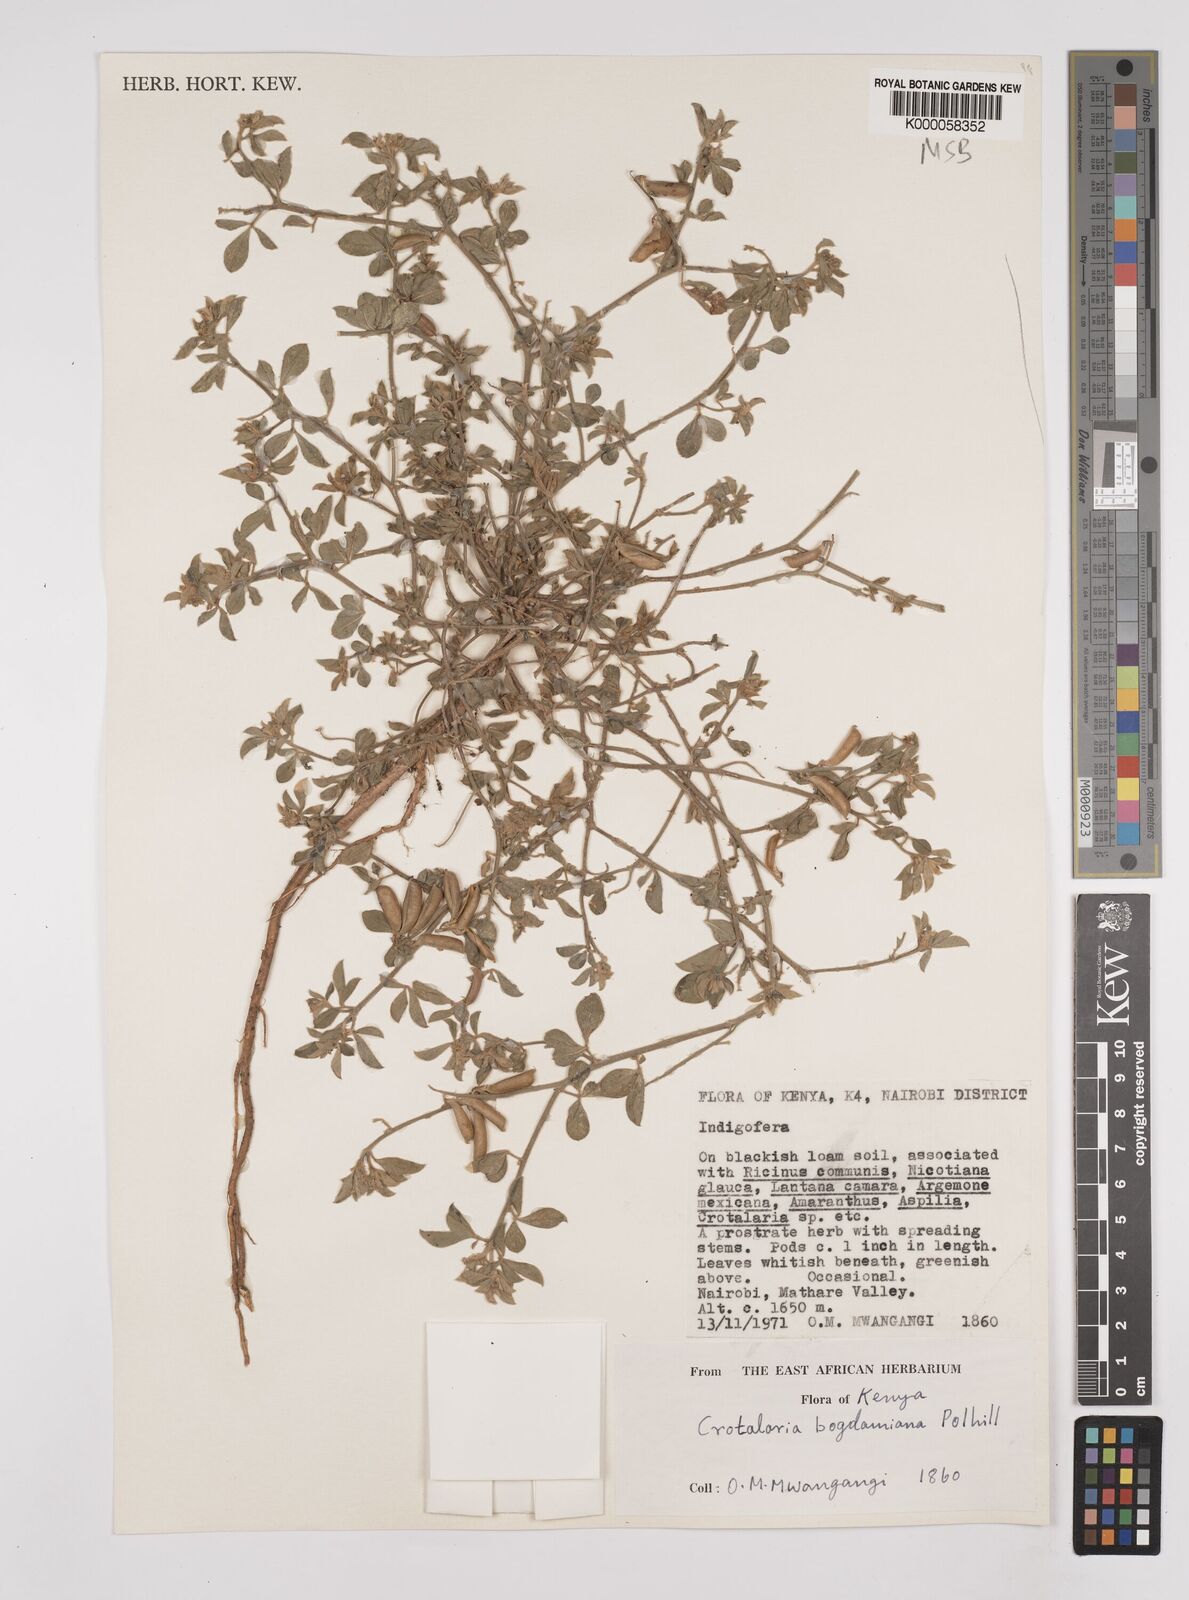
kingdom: Plantae
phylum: Tracheophyta
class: Magnoliopsida
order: Fabales
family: Fabaceae
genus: Crotalaria
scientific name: Crotalaria bogdaniana
